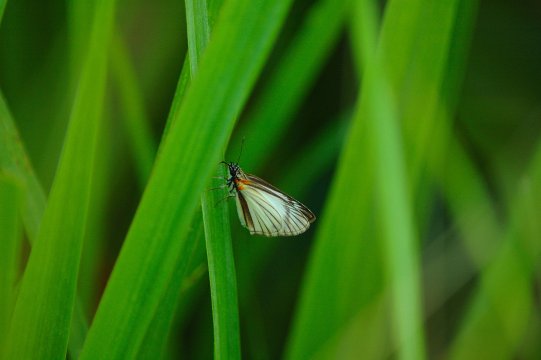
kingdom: Animalia
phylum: Arthropoda
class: Insecta
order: Lepidoptera
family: Hesperiidae
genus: Heliopetes
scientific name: Heliopetes arsalte
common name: Veined White-Skipper
